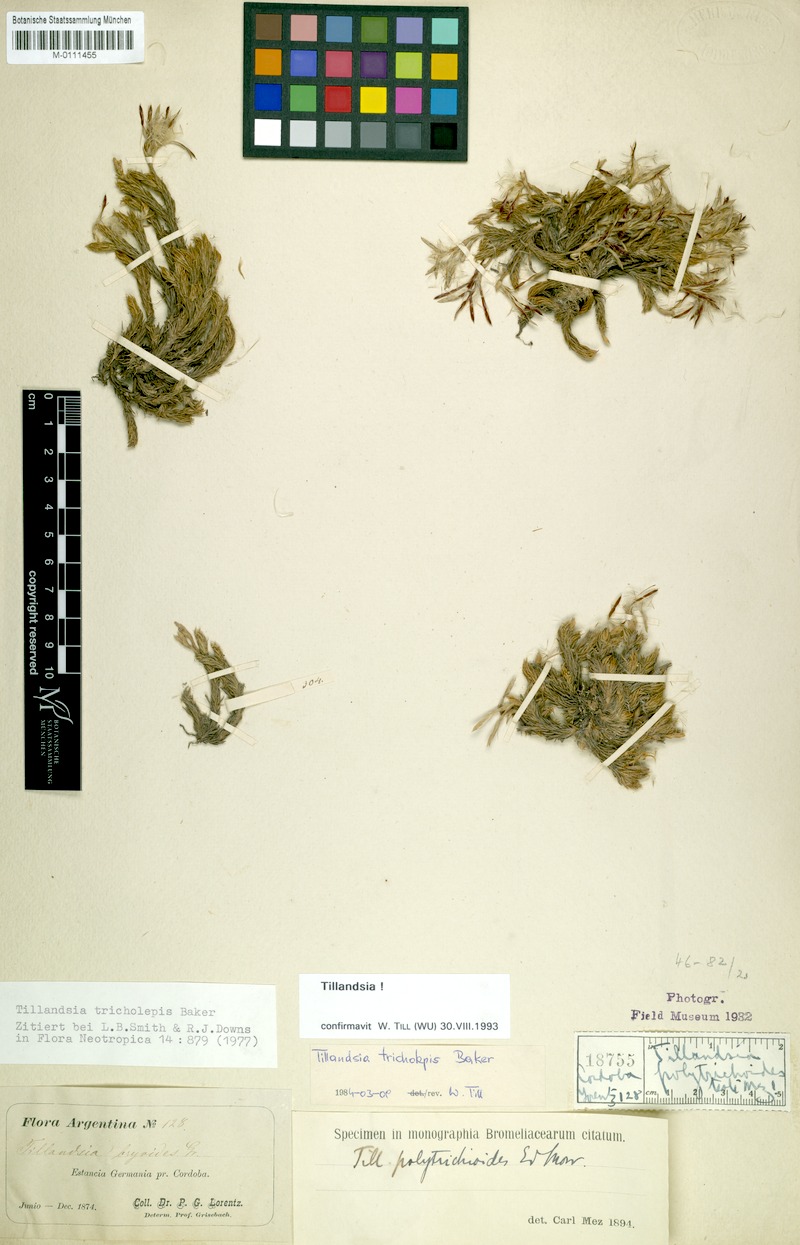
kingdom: Plantae
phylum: Tracheophyta
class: Liliopsida
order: Poales
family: Bromeliaceae
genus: Tillandsia
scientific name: Tillandsia tricholepis
